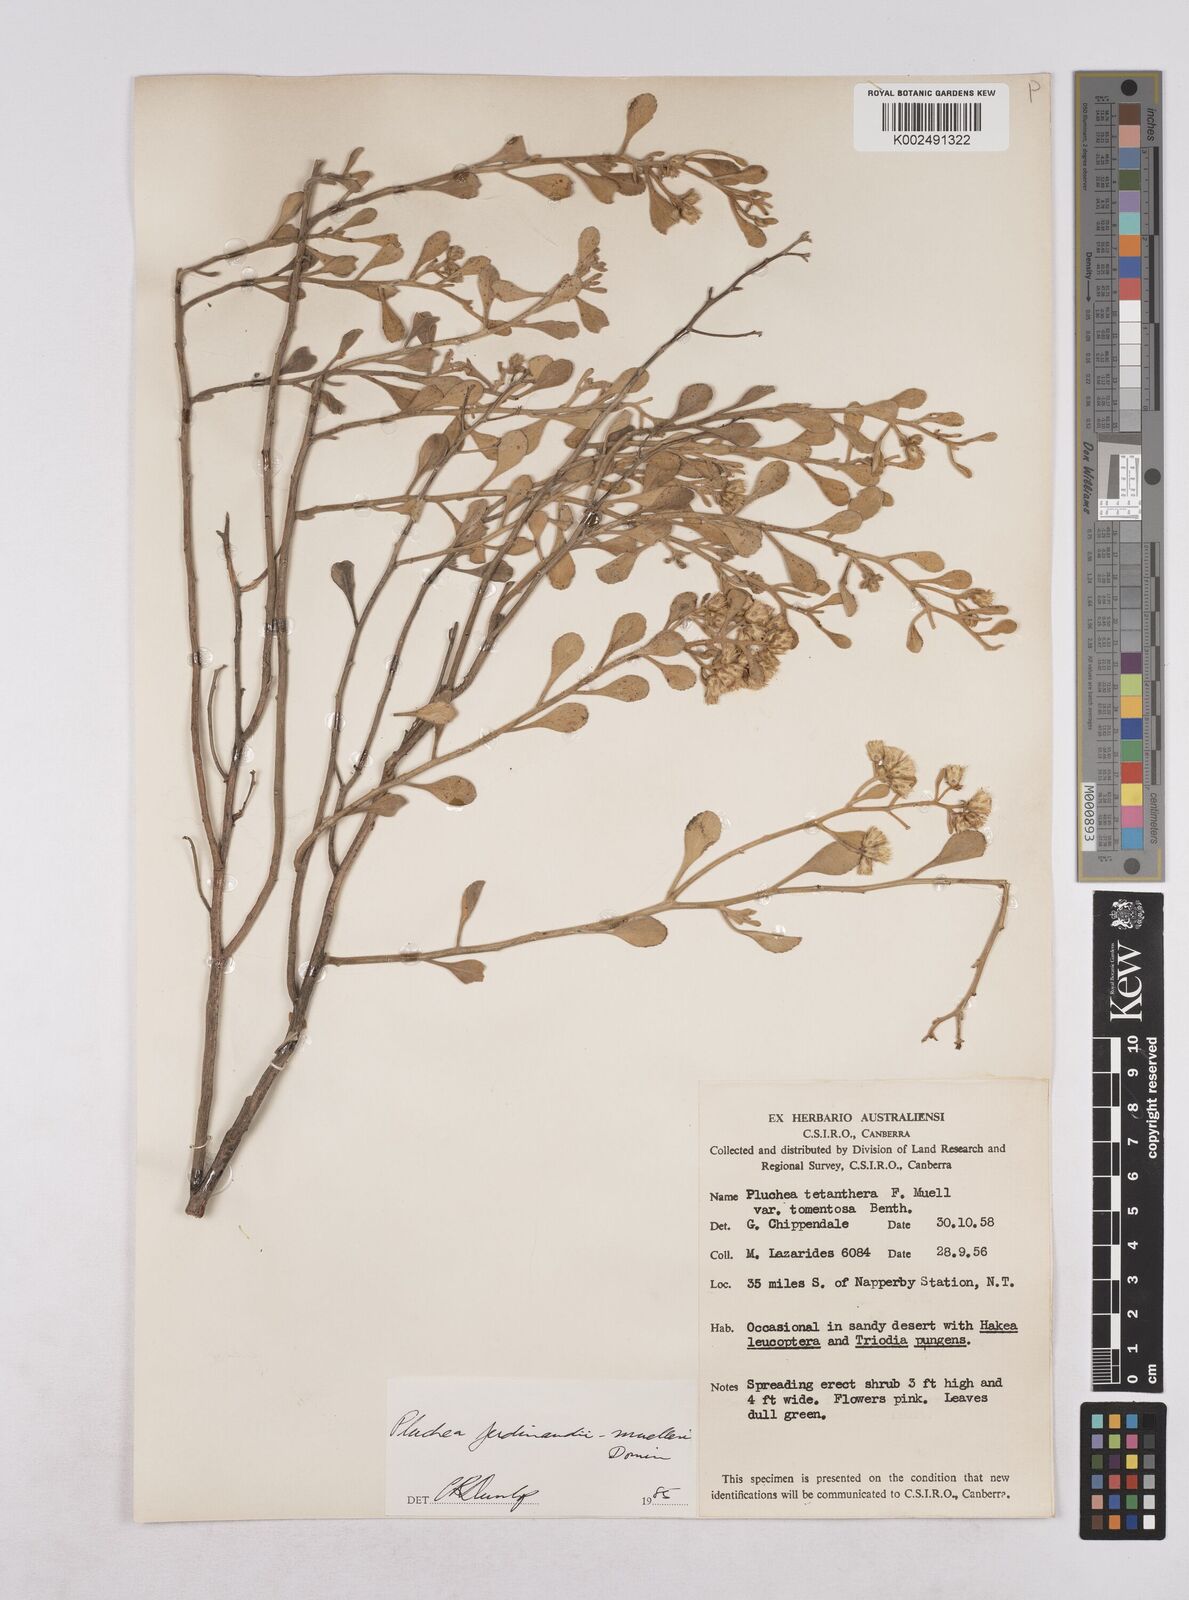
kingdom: Plantae
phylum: Tracheophyta
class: Magnoliopsida
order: Asterales
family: Asteraceae
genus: Pluchea
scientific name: Pluchea ferdinandi-muelleri
